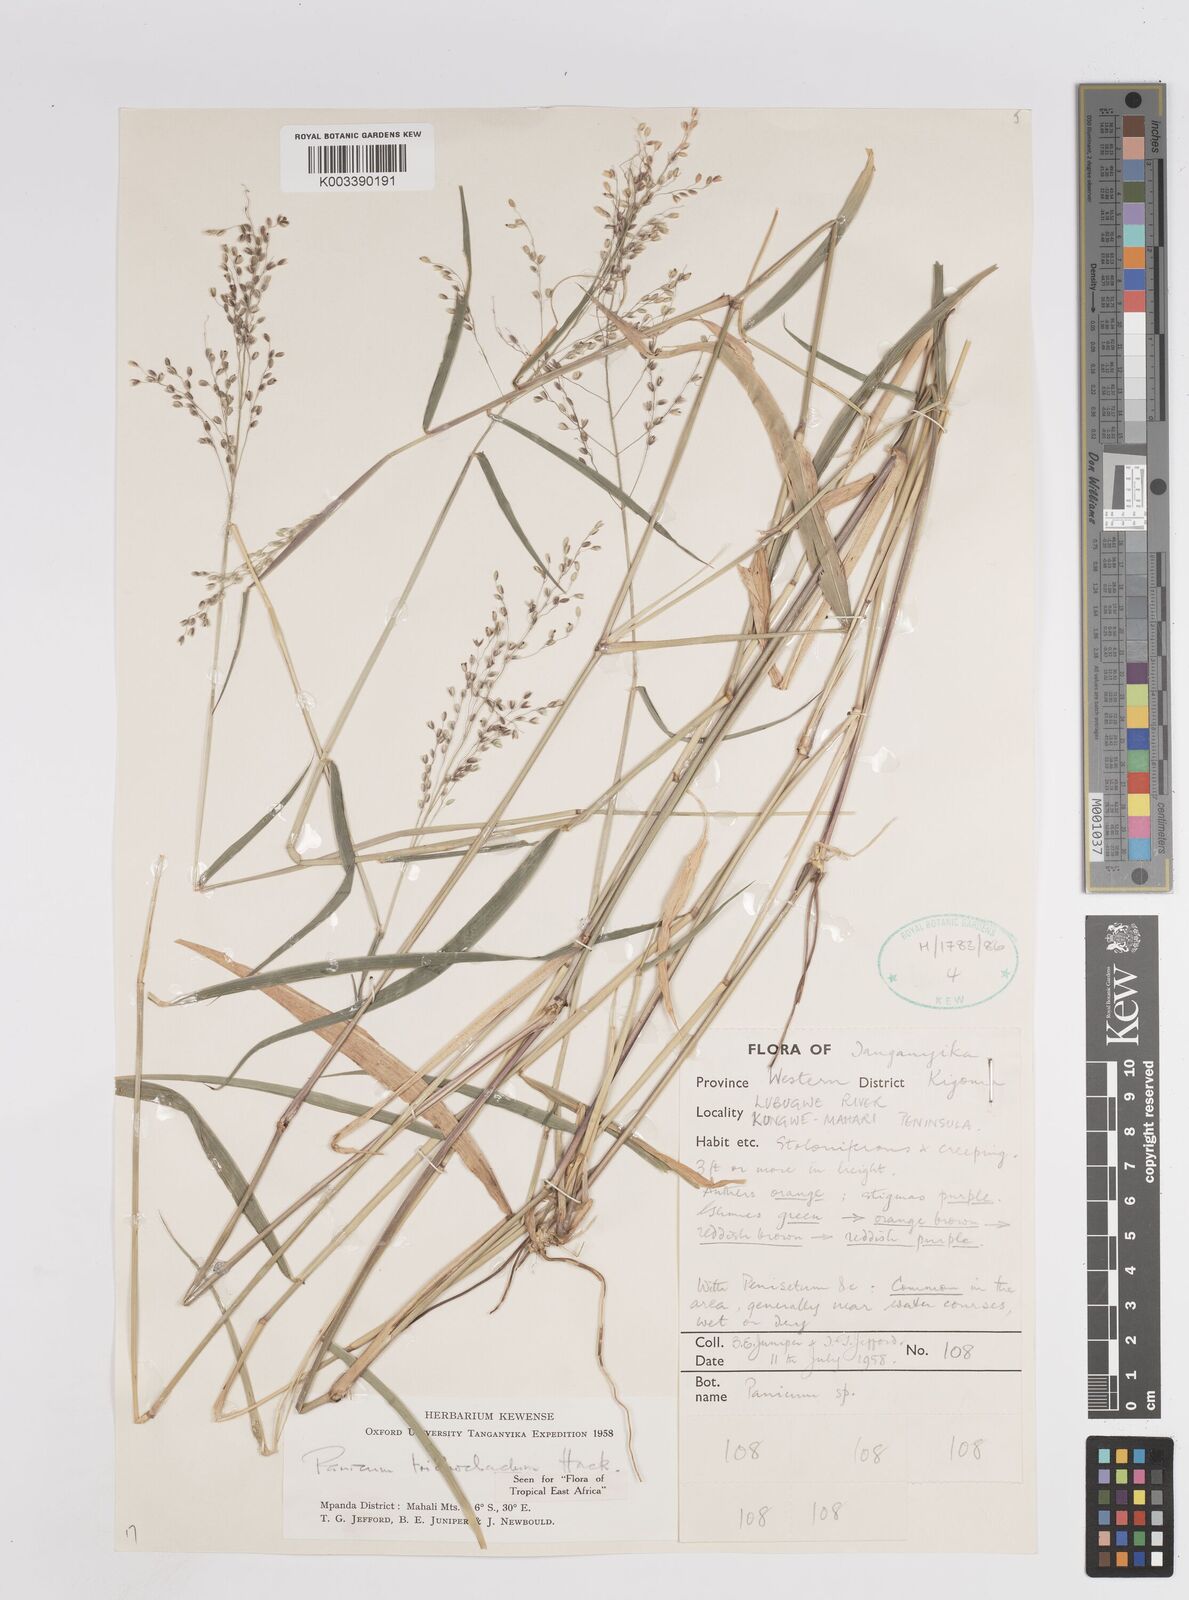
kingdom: Plantae
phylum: Tracheophyta
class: Liliopsida
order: Poales
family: Poaceae
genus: Panicum
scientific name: Panicum trichocladum
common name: Donkey grass
